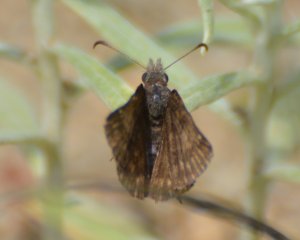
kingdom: Animalia
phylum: Arthropoda
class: Insecta
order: Lepidoptera
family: Hesperiidae
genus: Erynnis
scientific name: Erynnis icelus
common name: Dreamy Duskywing
